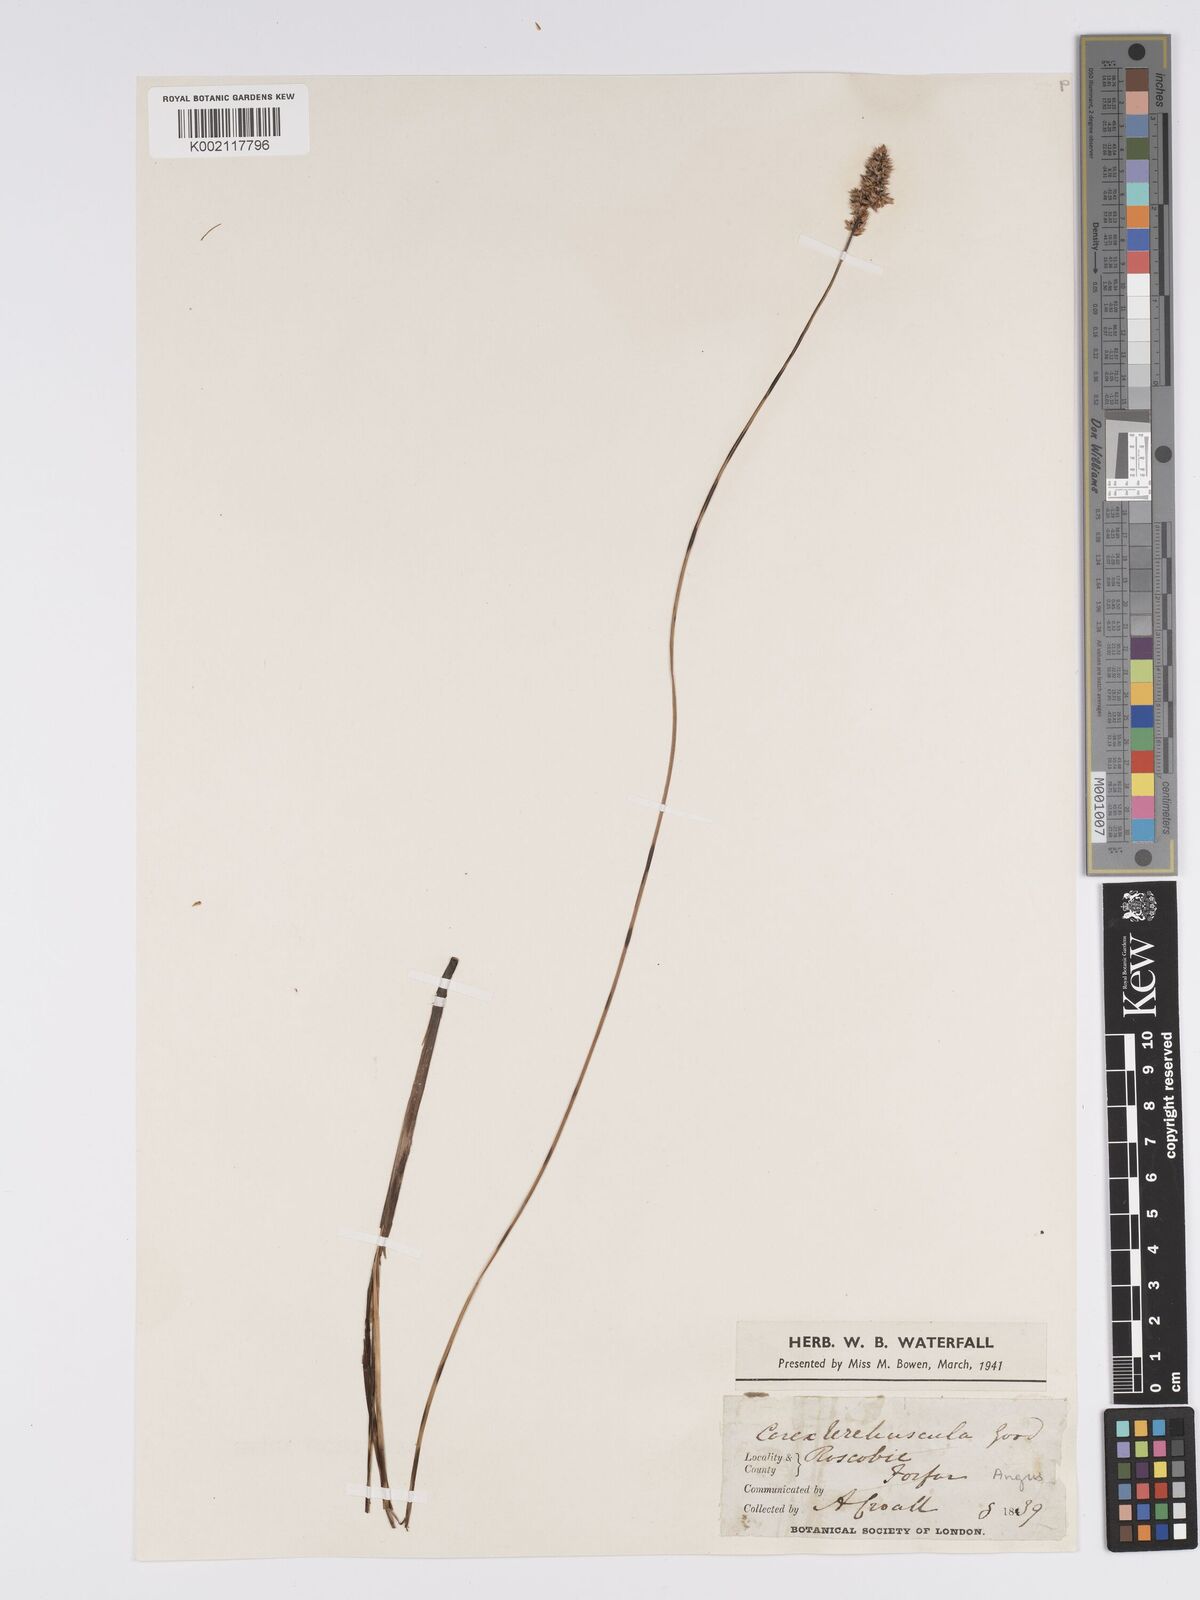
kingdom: Plantae
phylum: Tracheophyta
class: Liliopsida
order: Poales
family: Cyperaceae
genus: Carex
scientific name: Carex diandra
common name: Lesser tussock-sedge
